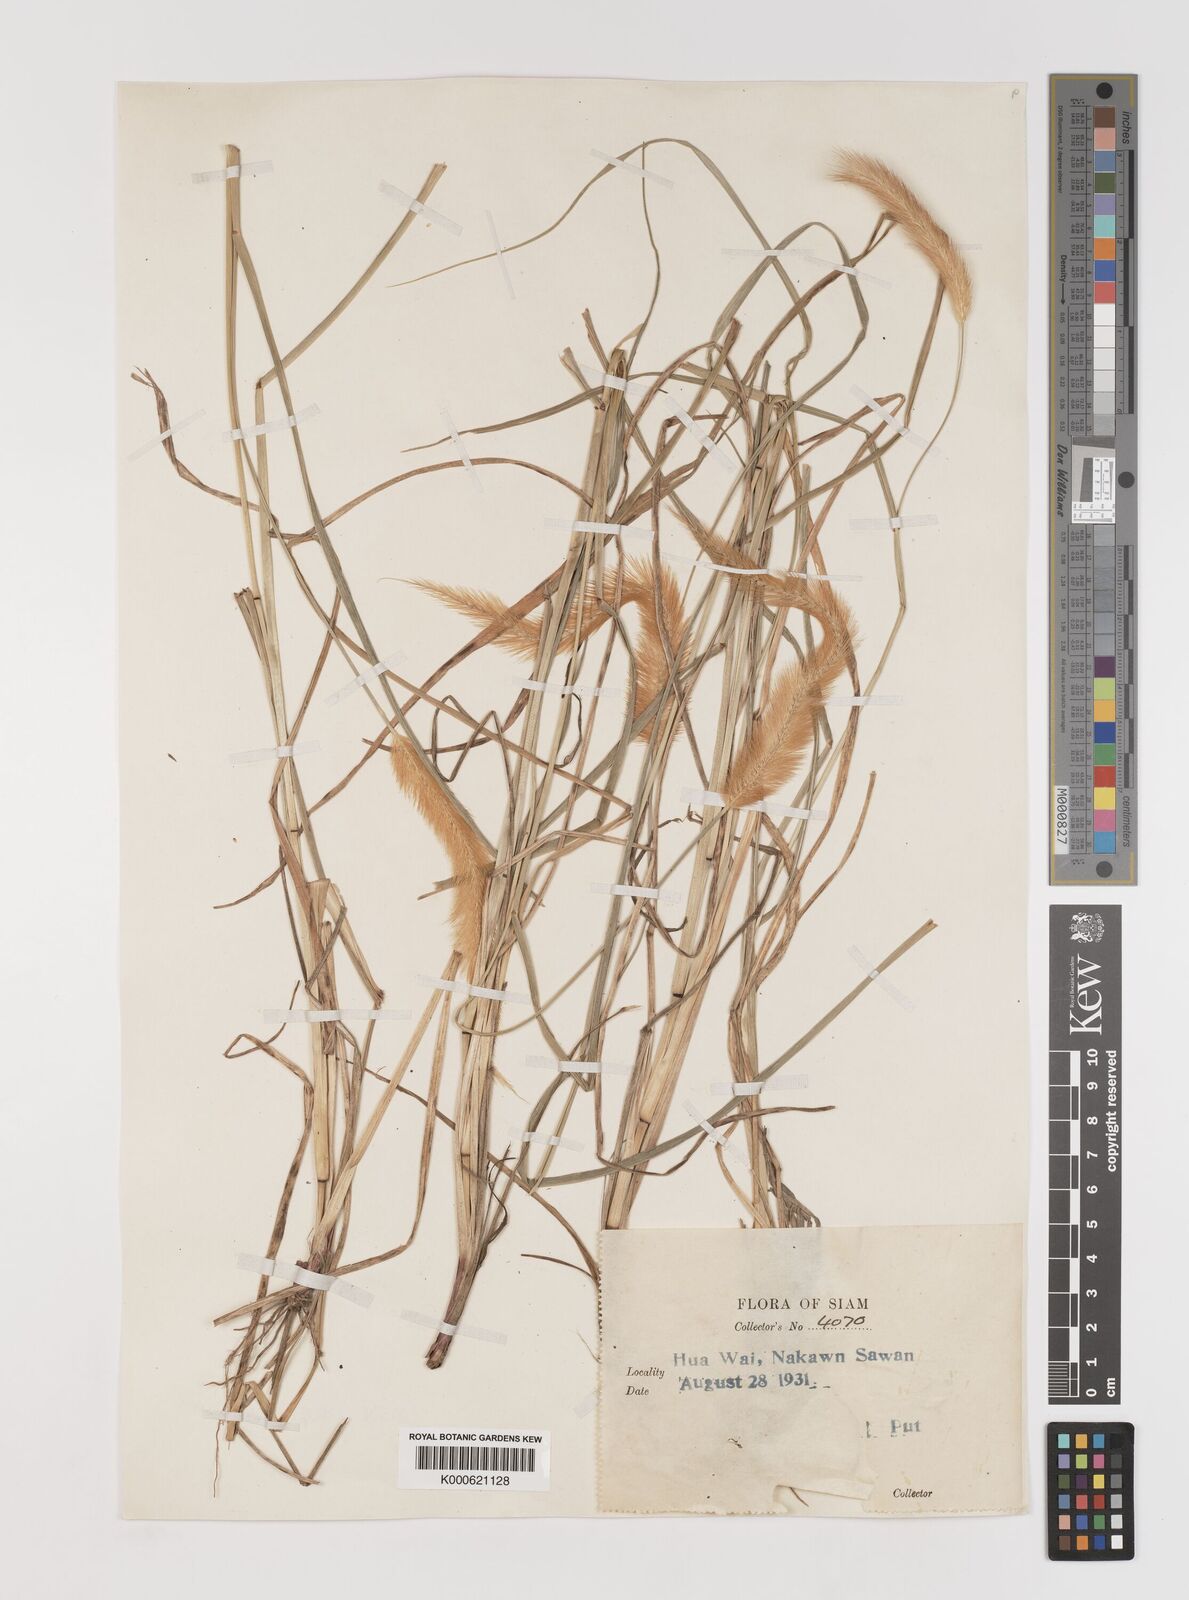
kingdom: Plantae
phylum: Tracheophyta
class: Liliopsida
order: Poales
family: Poaceae
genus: Setaria
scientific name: Setaria italica
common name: Foxtail bristle-grass
